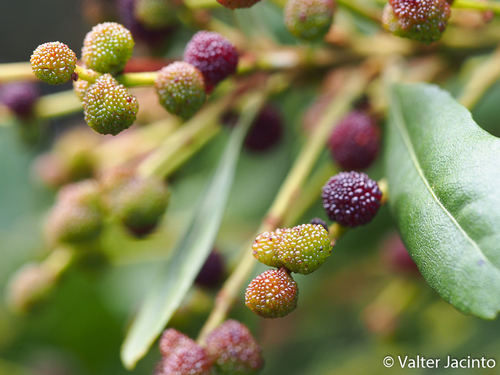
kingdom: Plantae
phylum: Tracheophyta
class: Magnoliopsida
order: Fagales
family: Myricaceae
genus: Morella
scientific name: Morella faya
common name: Firetree
